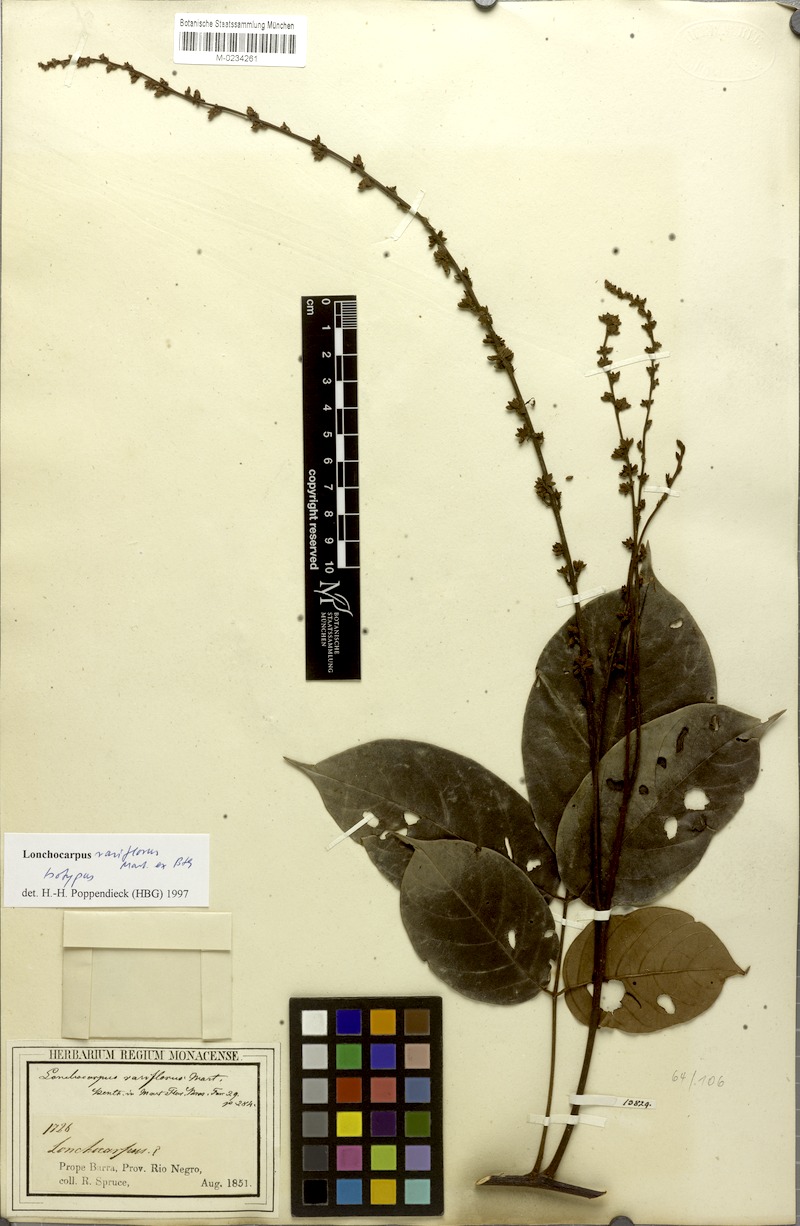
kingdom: Plantae
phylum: Tracheophyta
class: Magnoliopsida
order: Fabales
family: Fabaceae
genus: Deguelia
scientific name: Deguelia rariflora
